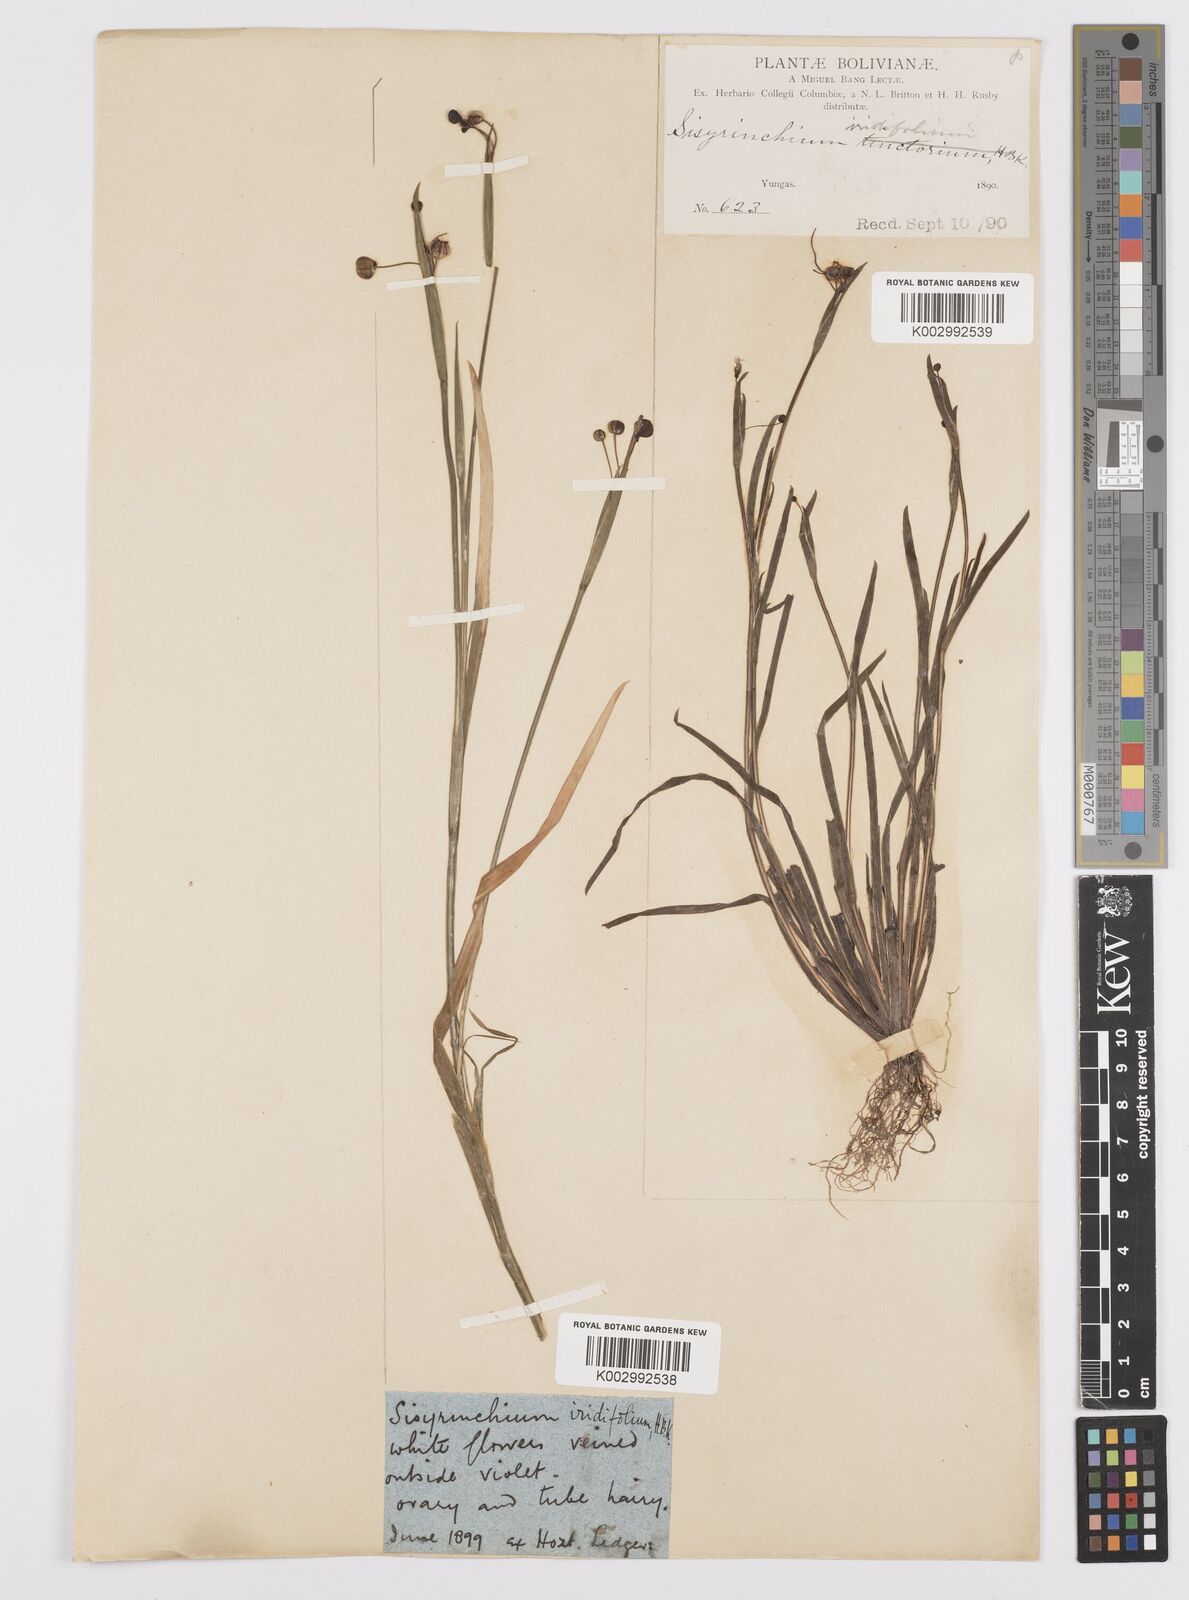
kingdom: Plantae
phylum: Tracheophyta
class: Liliopsida
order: Asparagales
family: Iridaceae
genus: Sisyrinchium
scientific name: Sisyrinchium micranthum
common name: Bermuda pigroot
